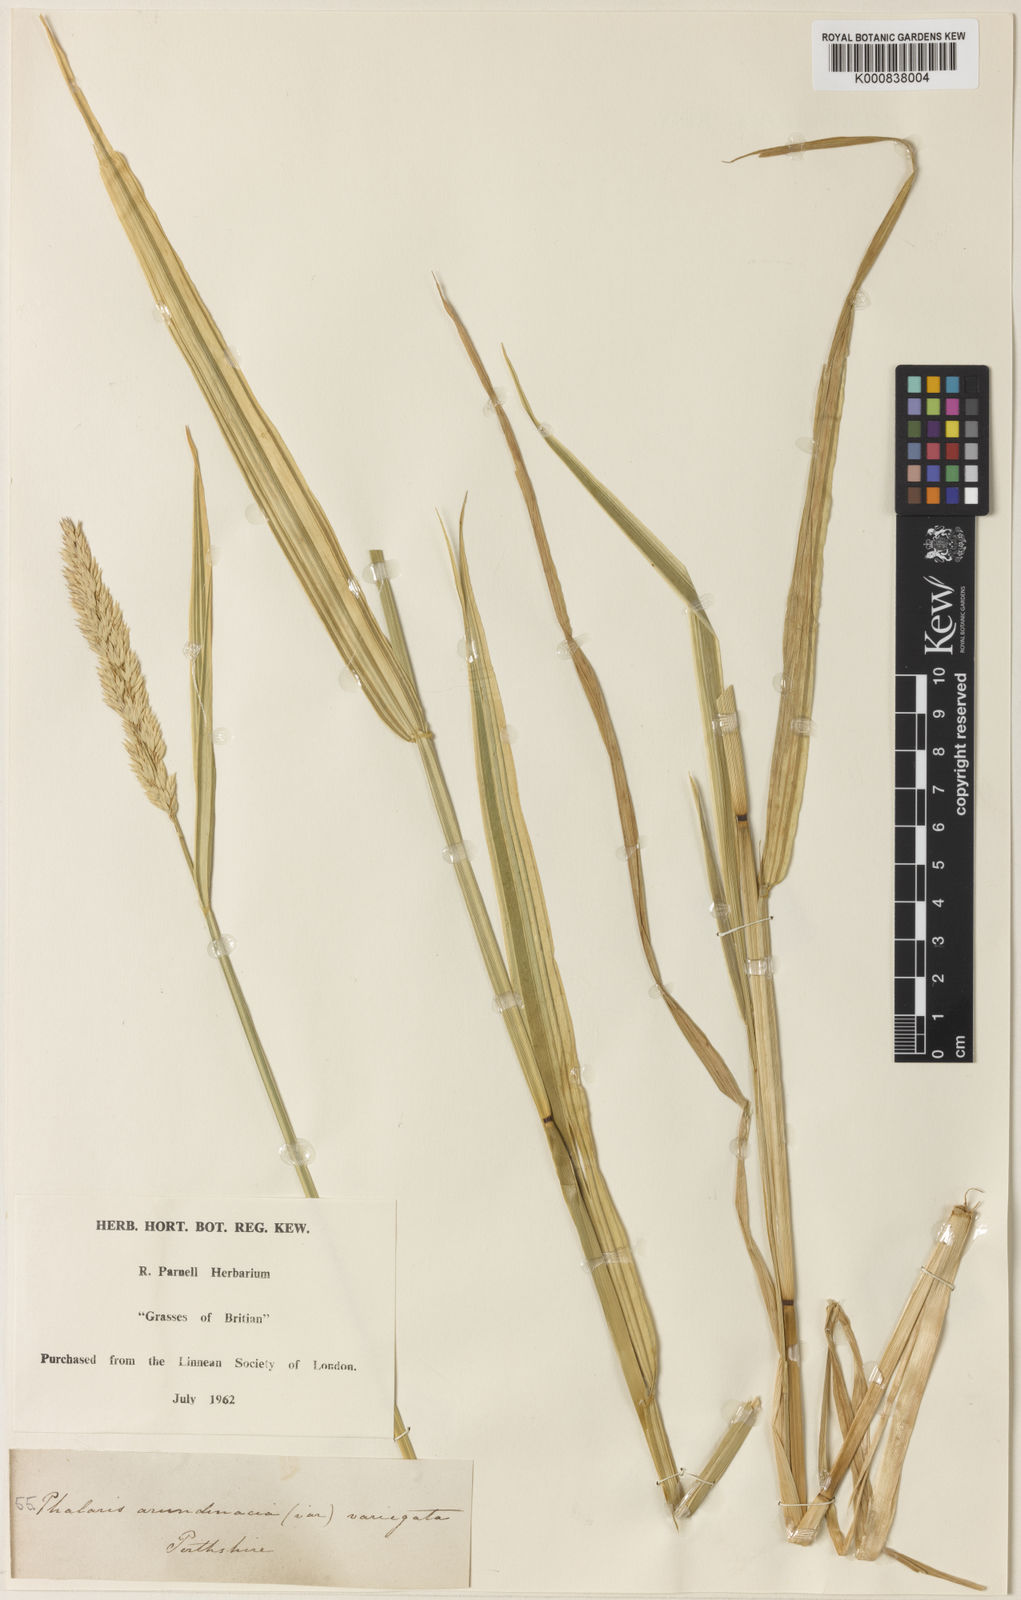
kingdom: Plantae
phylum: Tracheophyta
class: Liliopsida
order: Poales
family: Poaceae
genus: Phalaris
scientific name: Phalaris arundinacea
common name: Reed canary-grass
